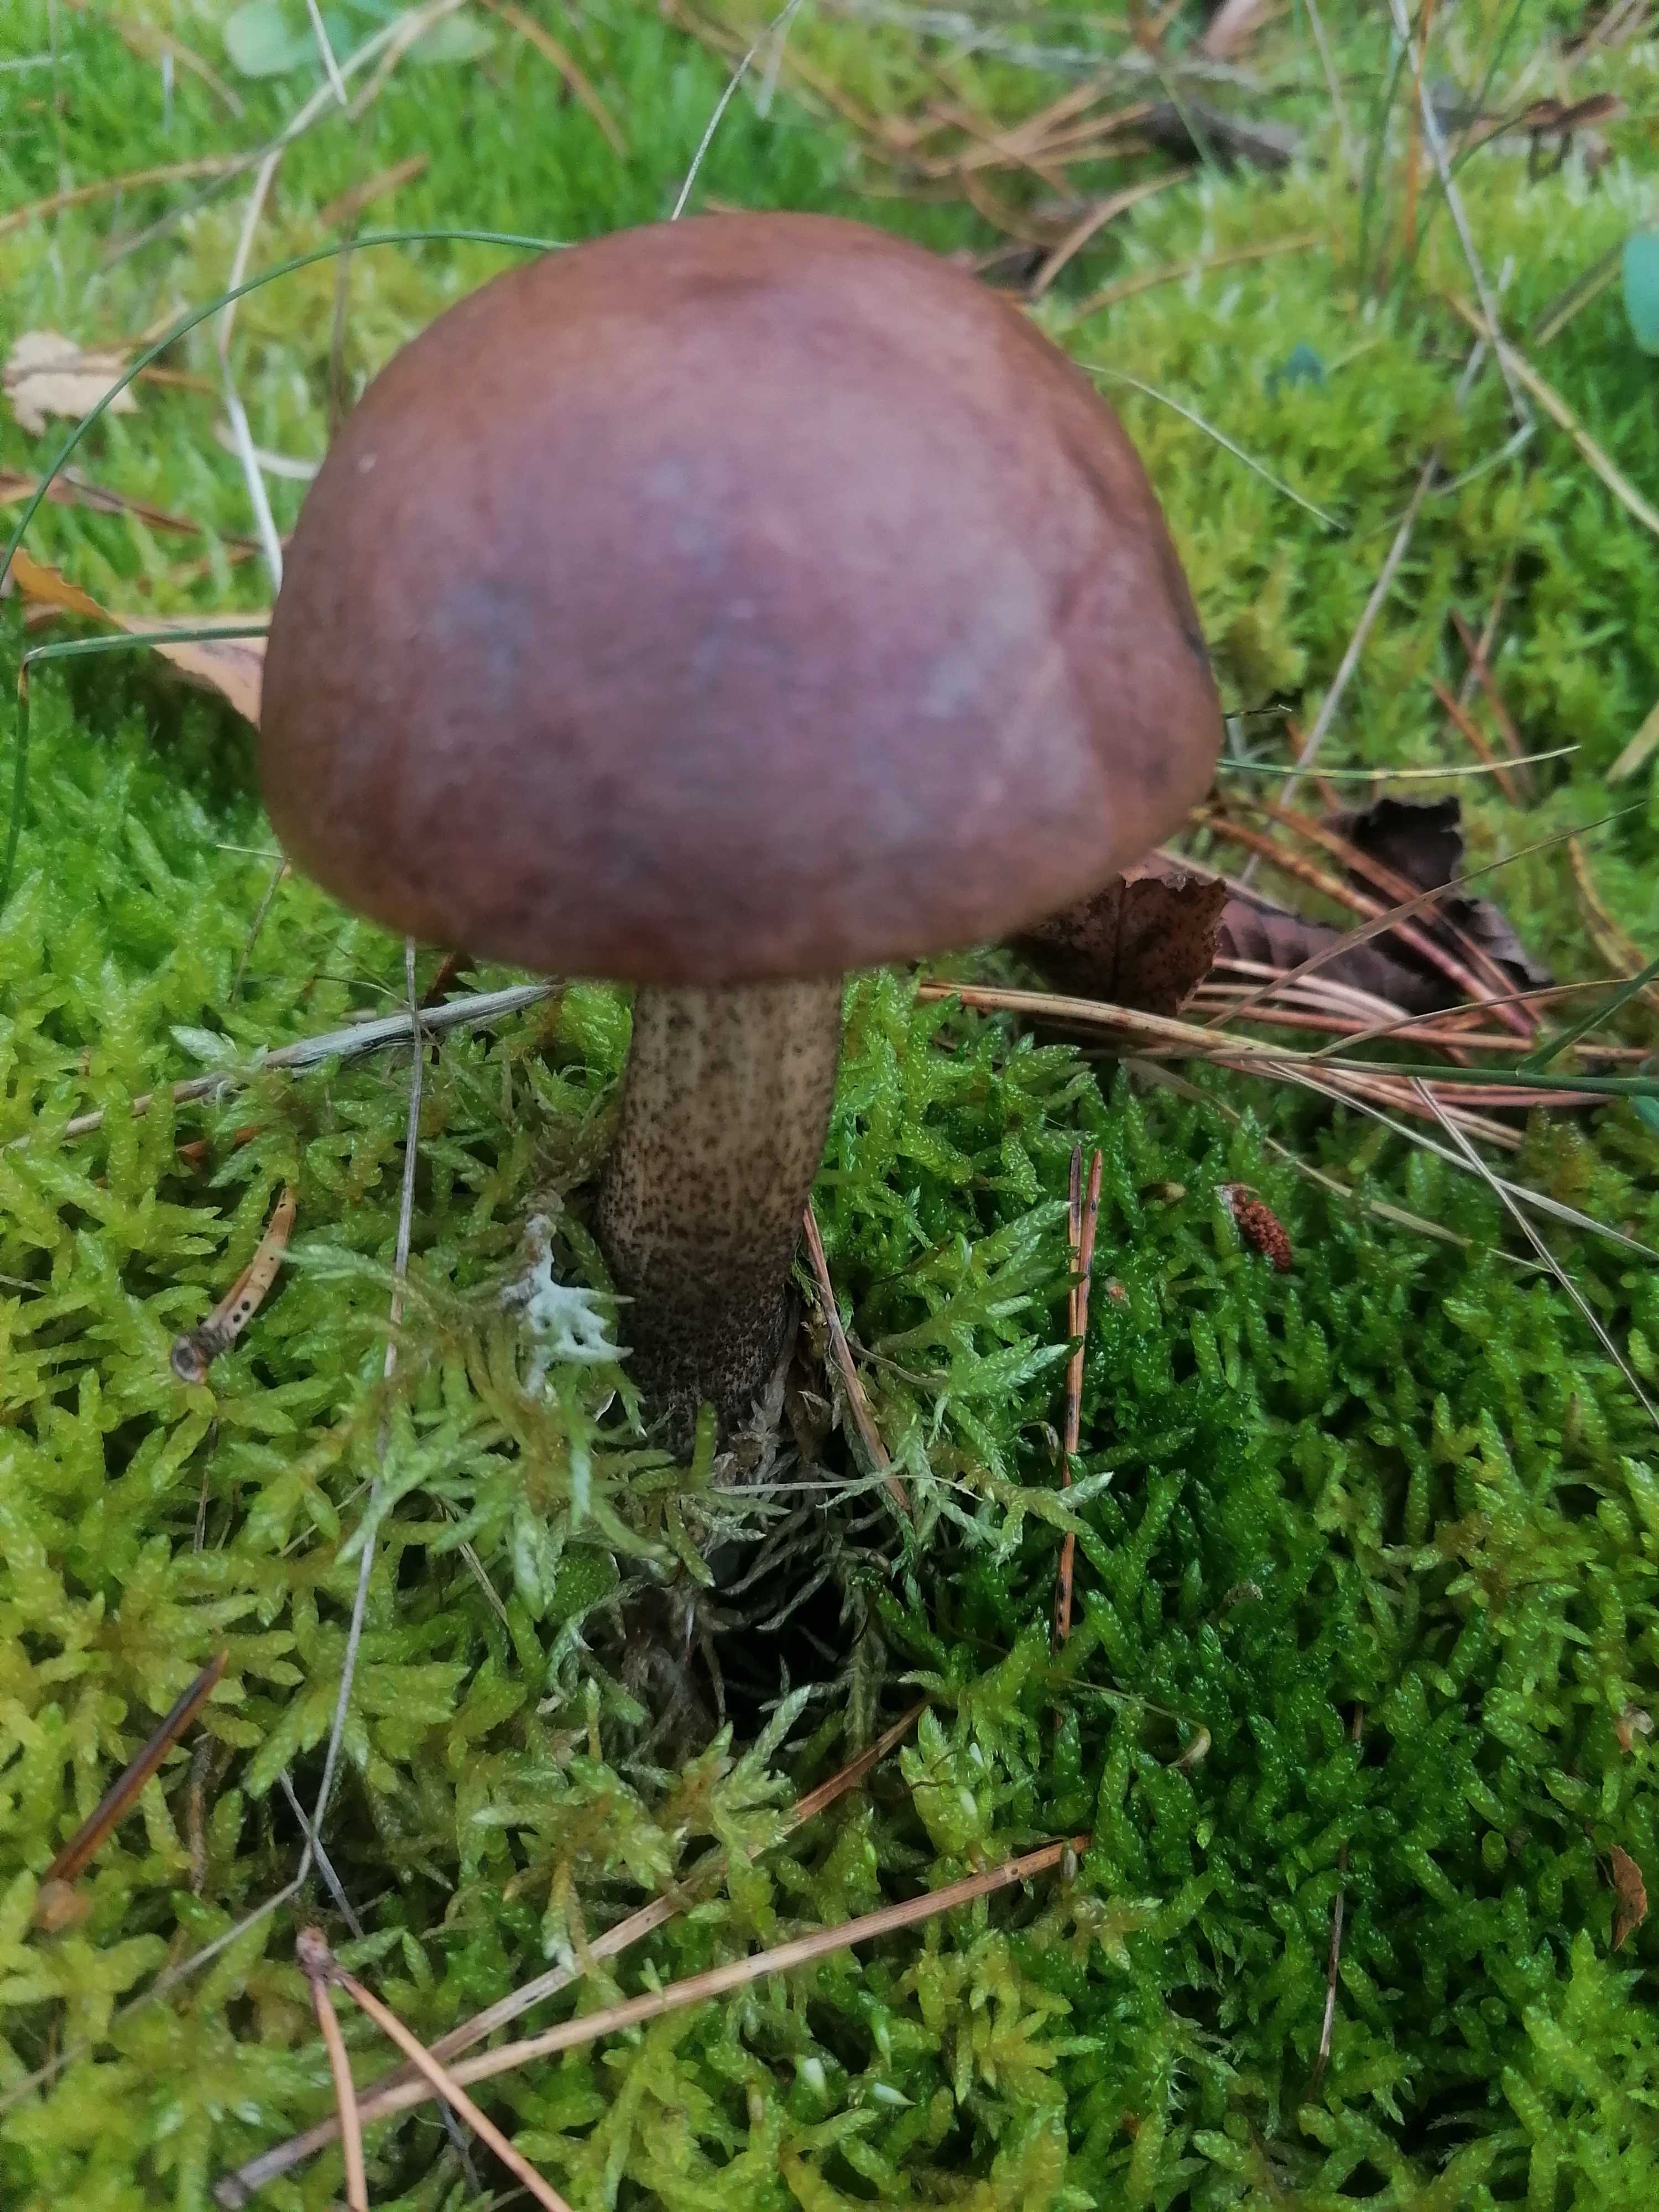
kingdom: Fungi
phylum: Basidiomycota
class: Agaricomycetes
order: Boletales
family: Boletaceae
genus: Leccinum
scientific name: Leccinum scabrum
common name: brun skælrørhat
